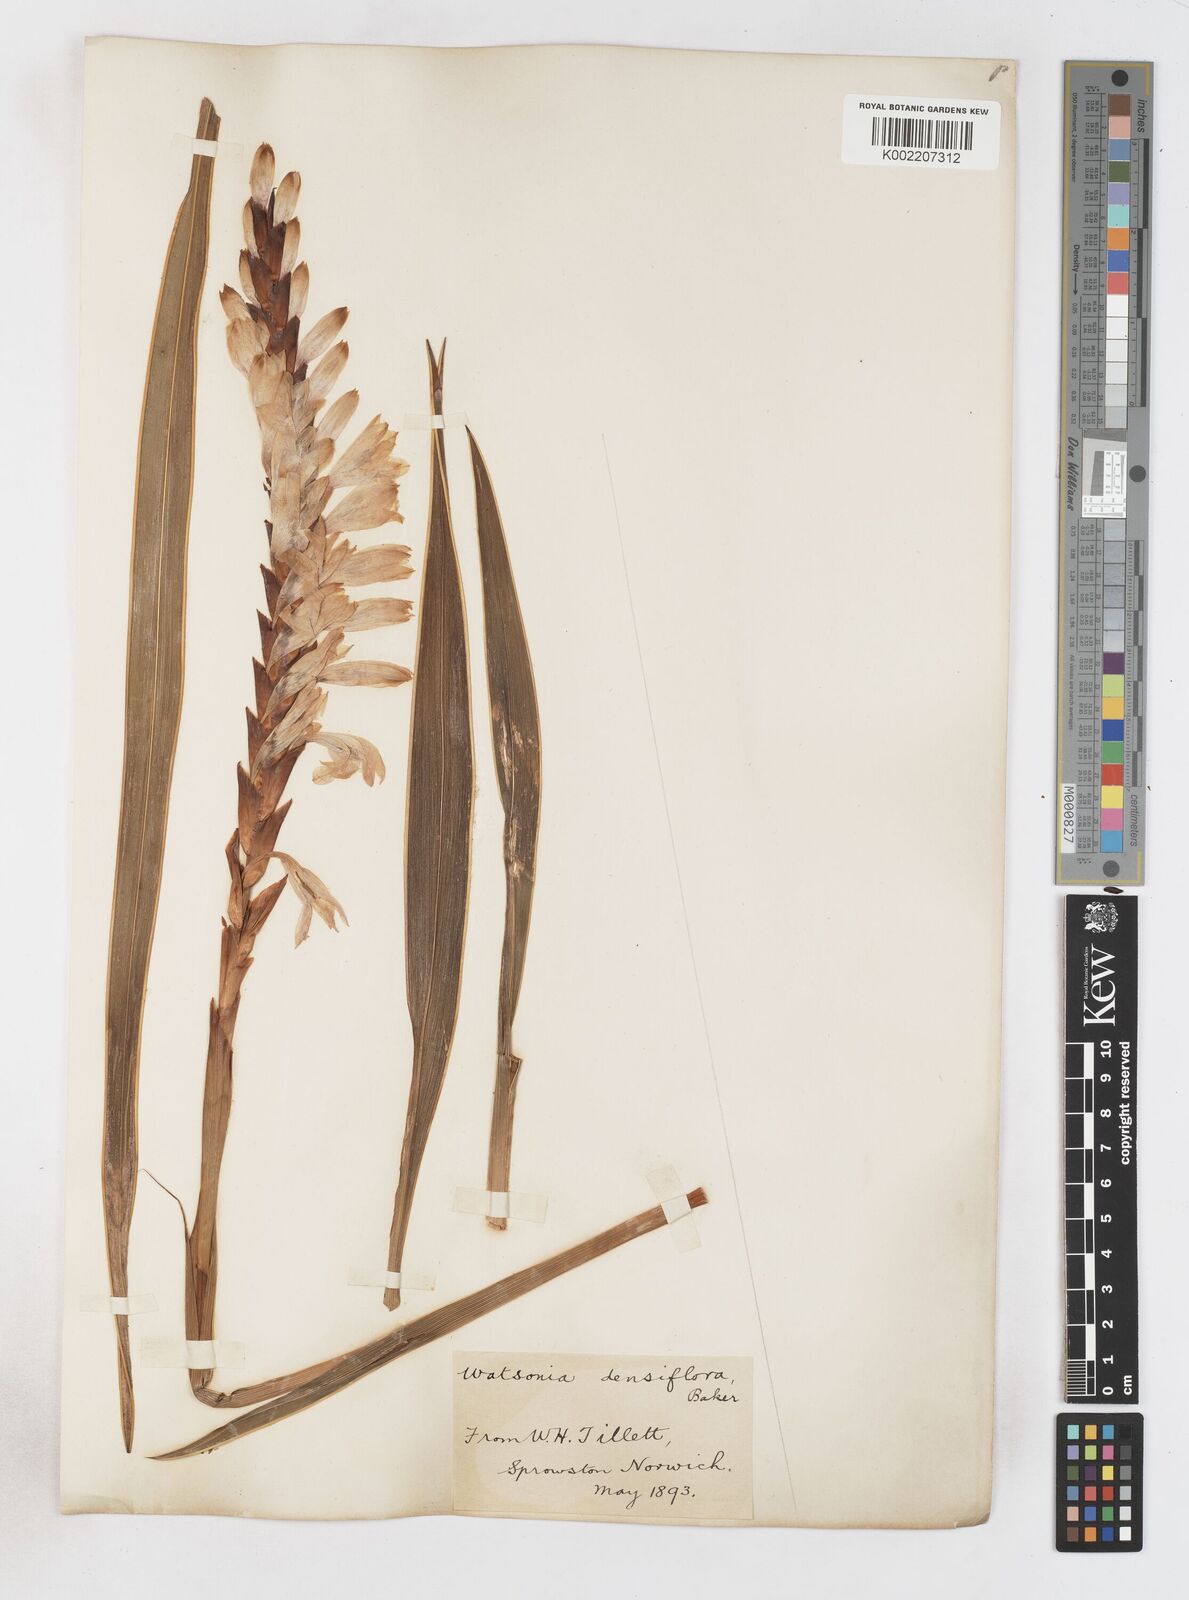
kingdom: Plantae
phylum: Tracheophyta
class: Liliopsida
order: Asparagales
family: Iridaceae
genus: Watsonia
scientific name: Watsonia densiflora
